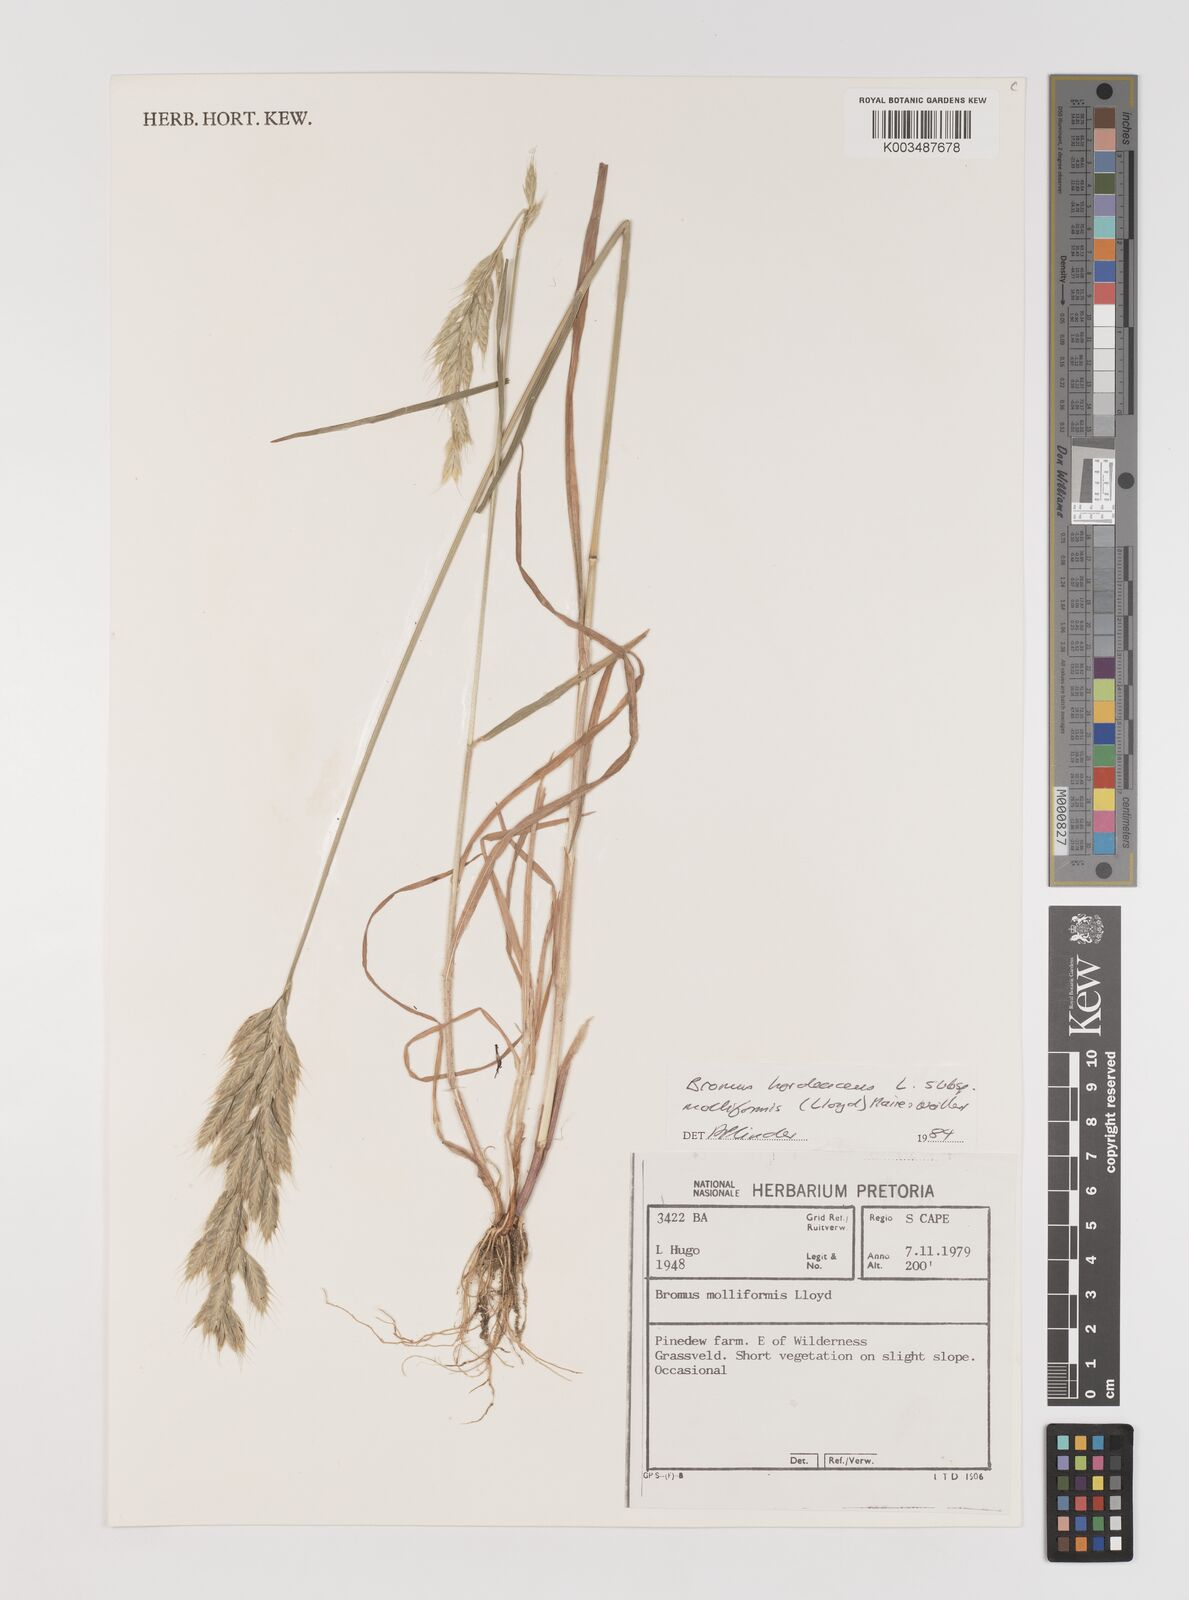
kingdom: Plantae
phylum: Tracheophyta
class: Liliopsida
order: Poales
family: Poaceae
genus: Bromus
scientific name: Bromus hordeaceus
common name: Soft brome
